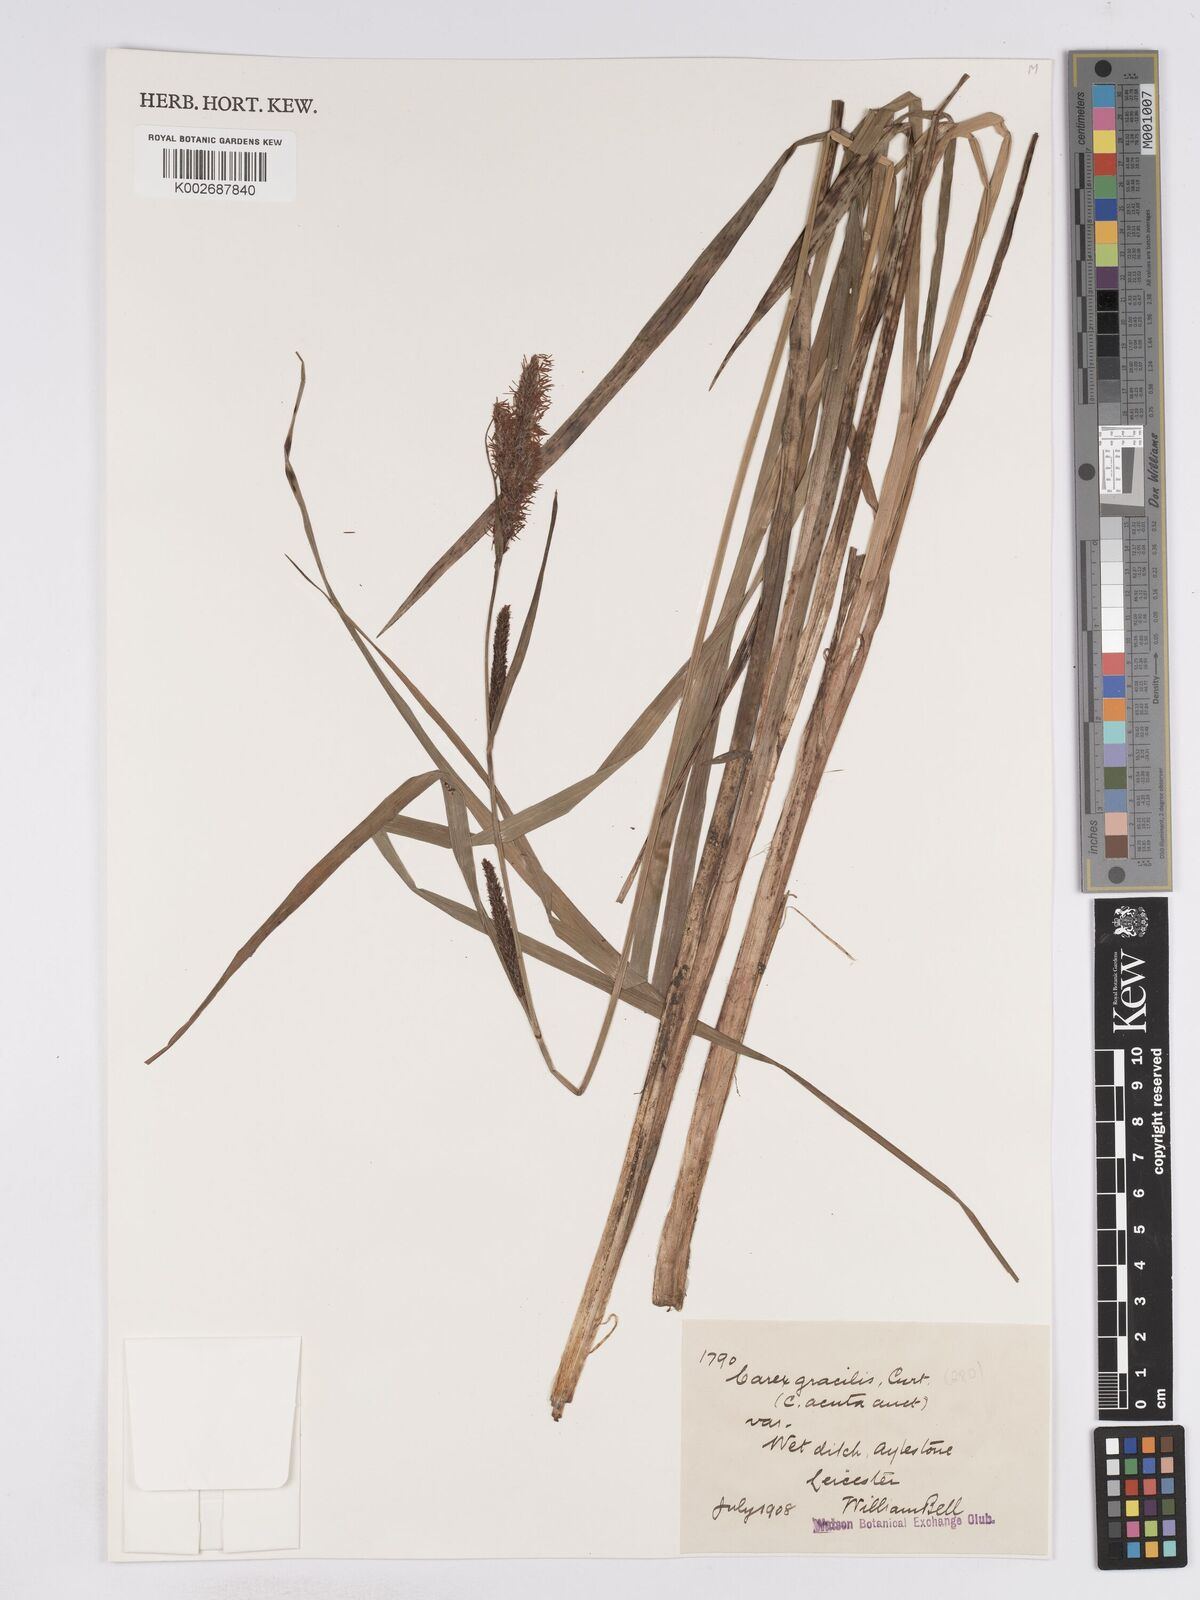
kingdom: Plantae
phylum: Tracheophyta
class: Liliopsida
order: Poales
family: Cyperaceae
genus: Carex
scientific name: Carex acuta
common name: Slender tufted-sedge
